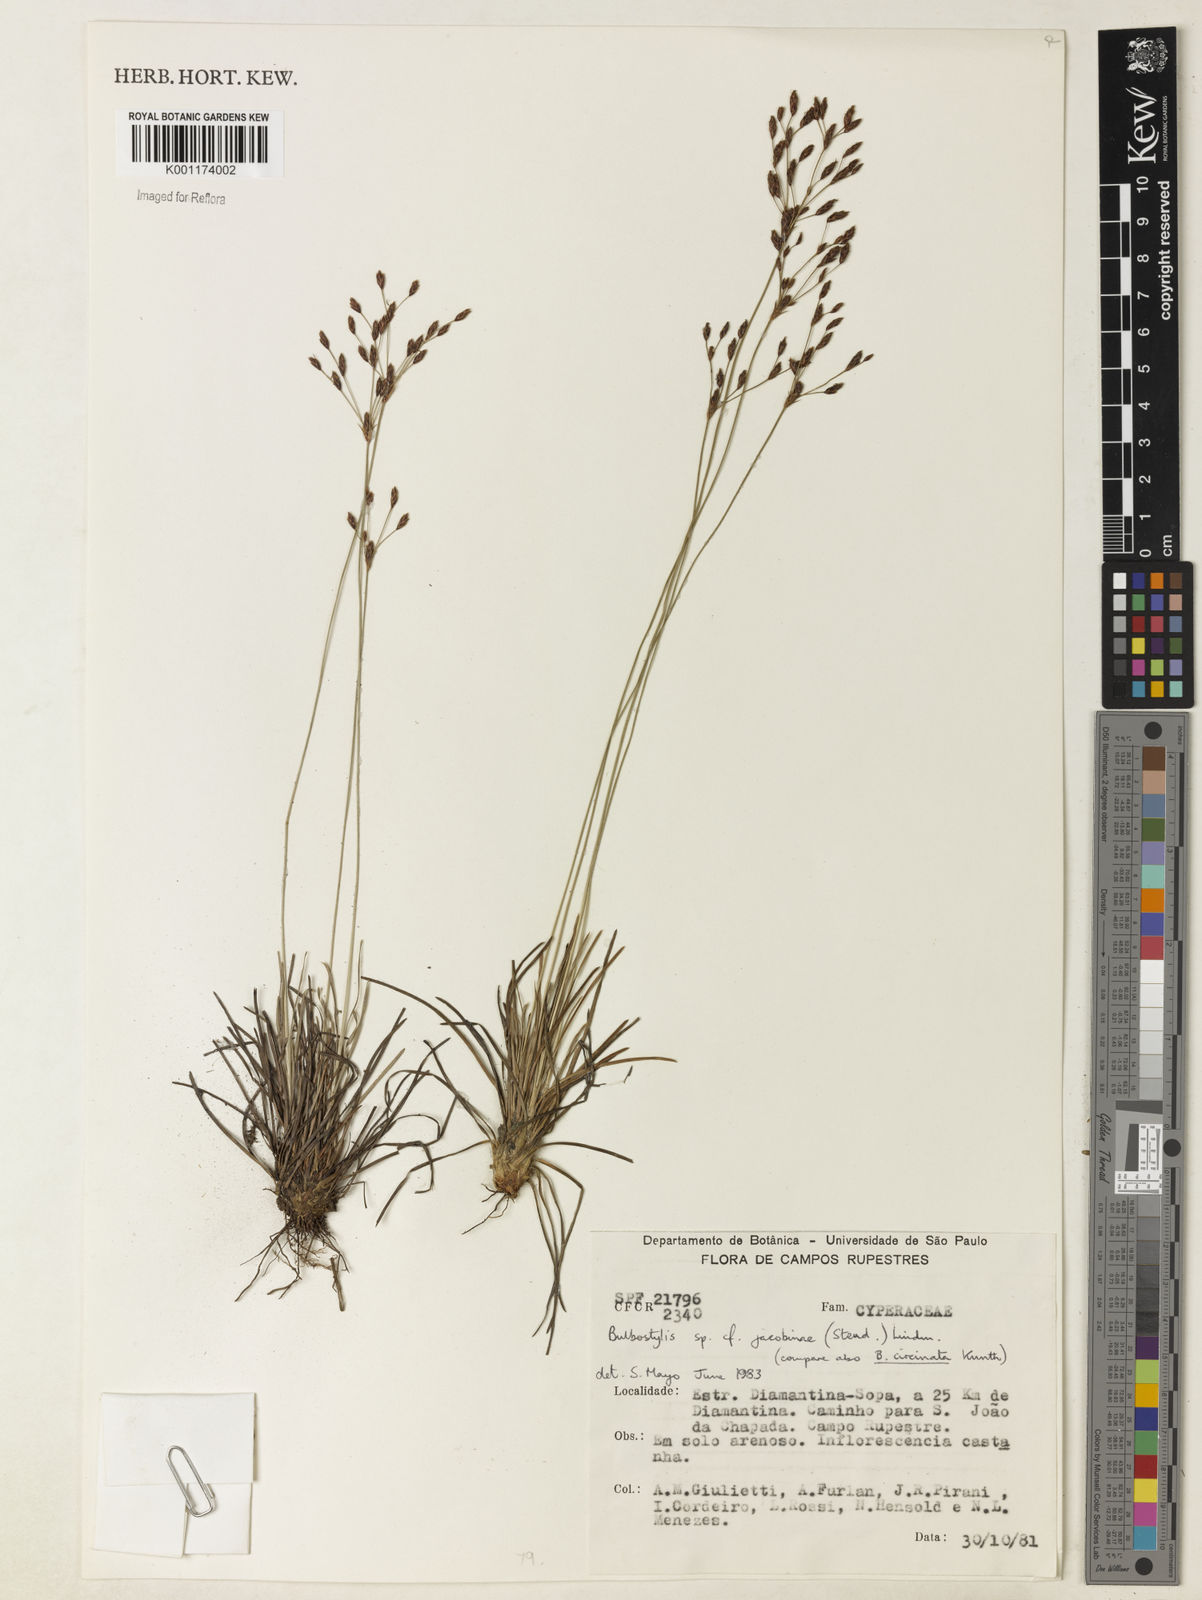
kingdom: Plantae
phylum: Tracheophyta
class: Liliopsida
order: Poales
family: Cyperaceae
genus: Bulbostylis
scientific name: Bulbostylis jacobinae
